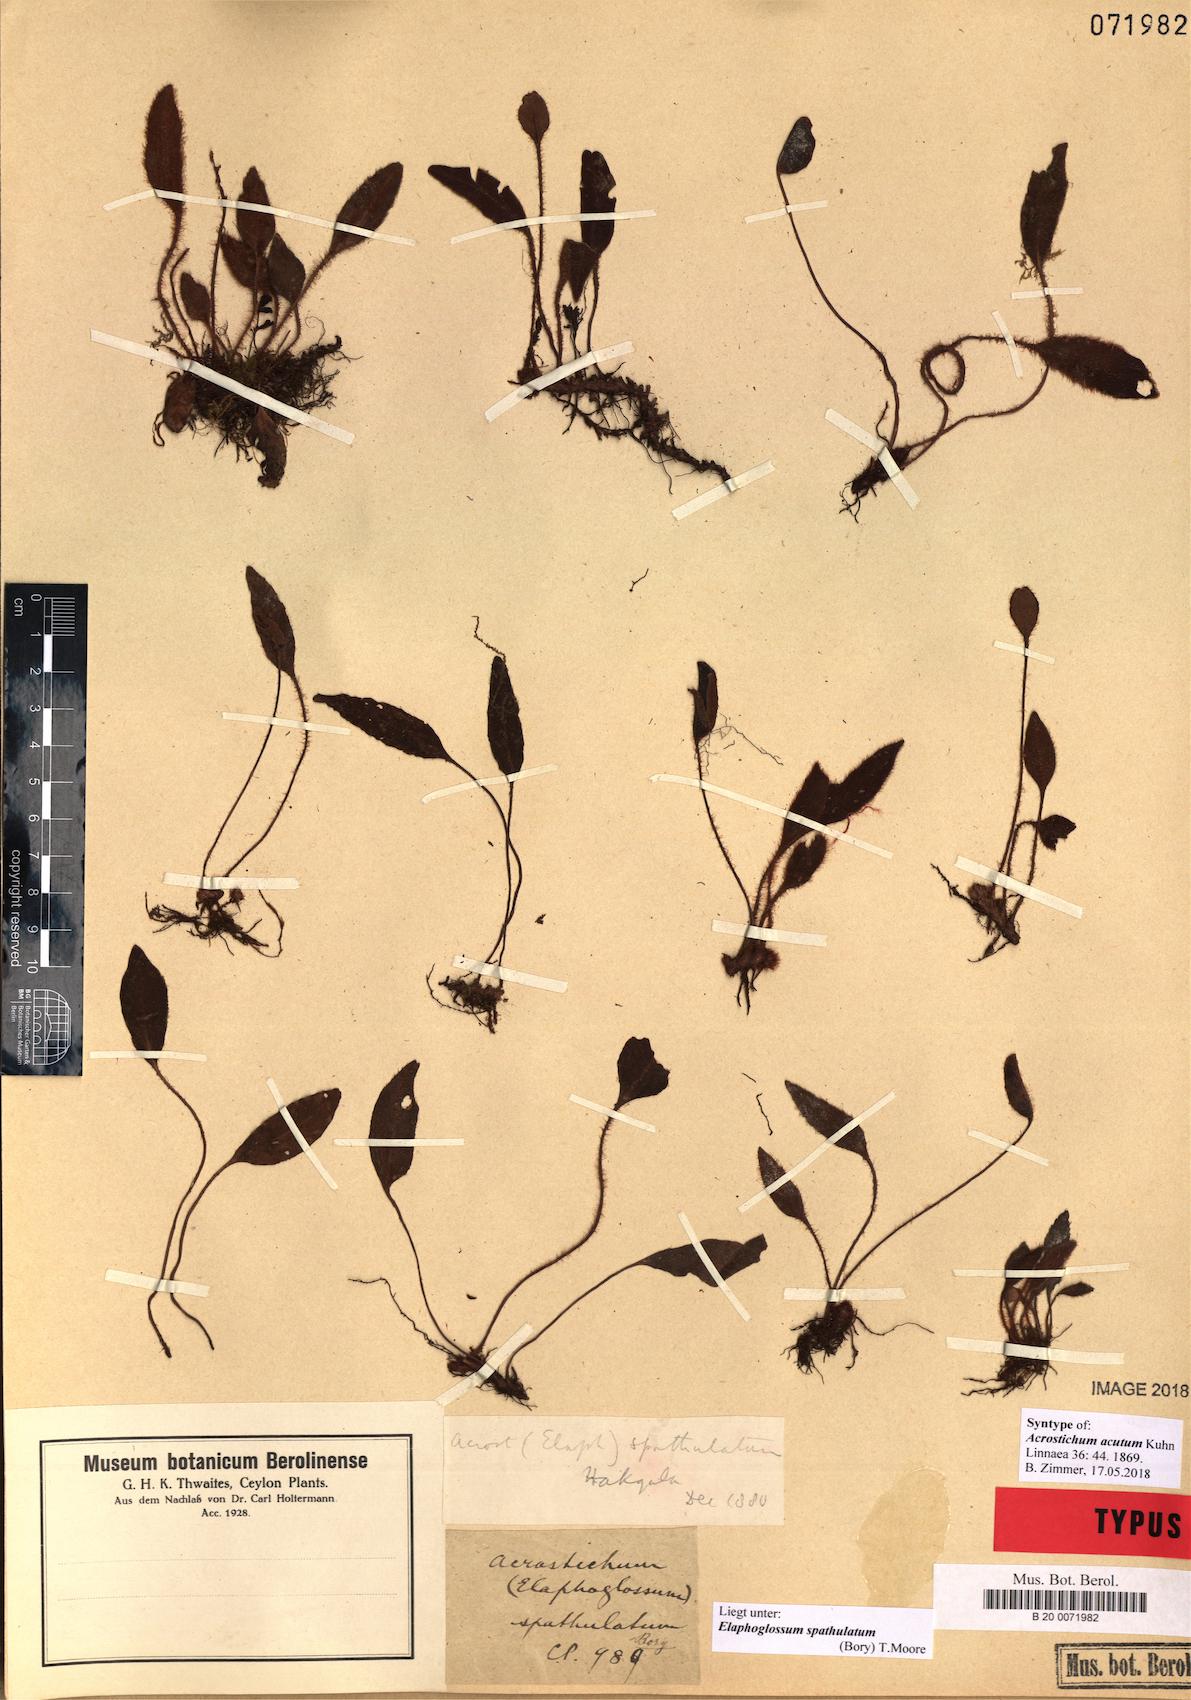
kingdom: Plantae
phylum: Tracheophyta
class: Polypodiopsida
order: Polypodiales
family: Dryopteridaceae
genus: Elaphoglossum
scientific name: Elaphoglossum spatulatum
